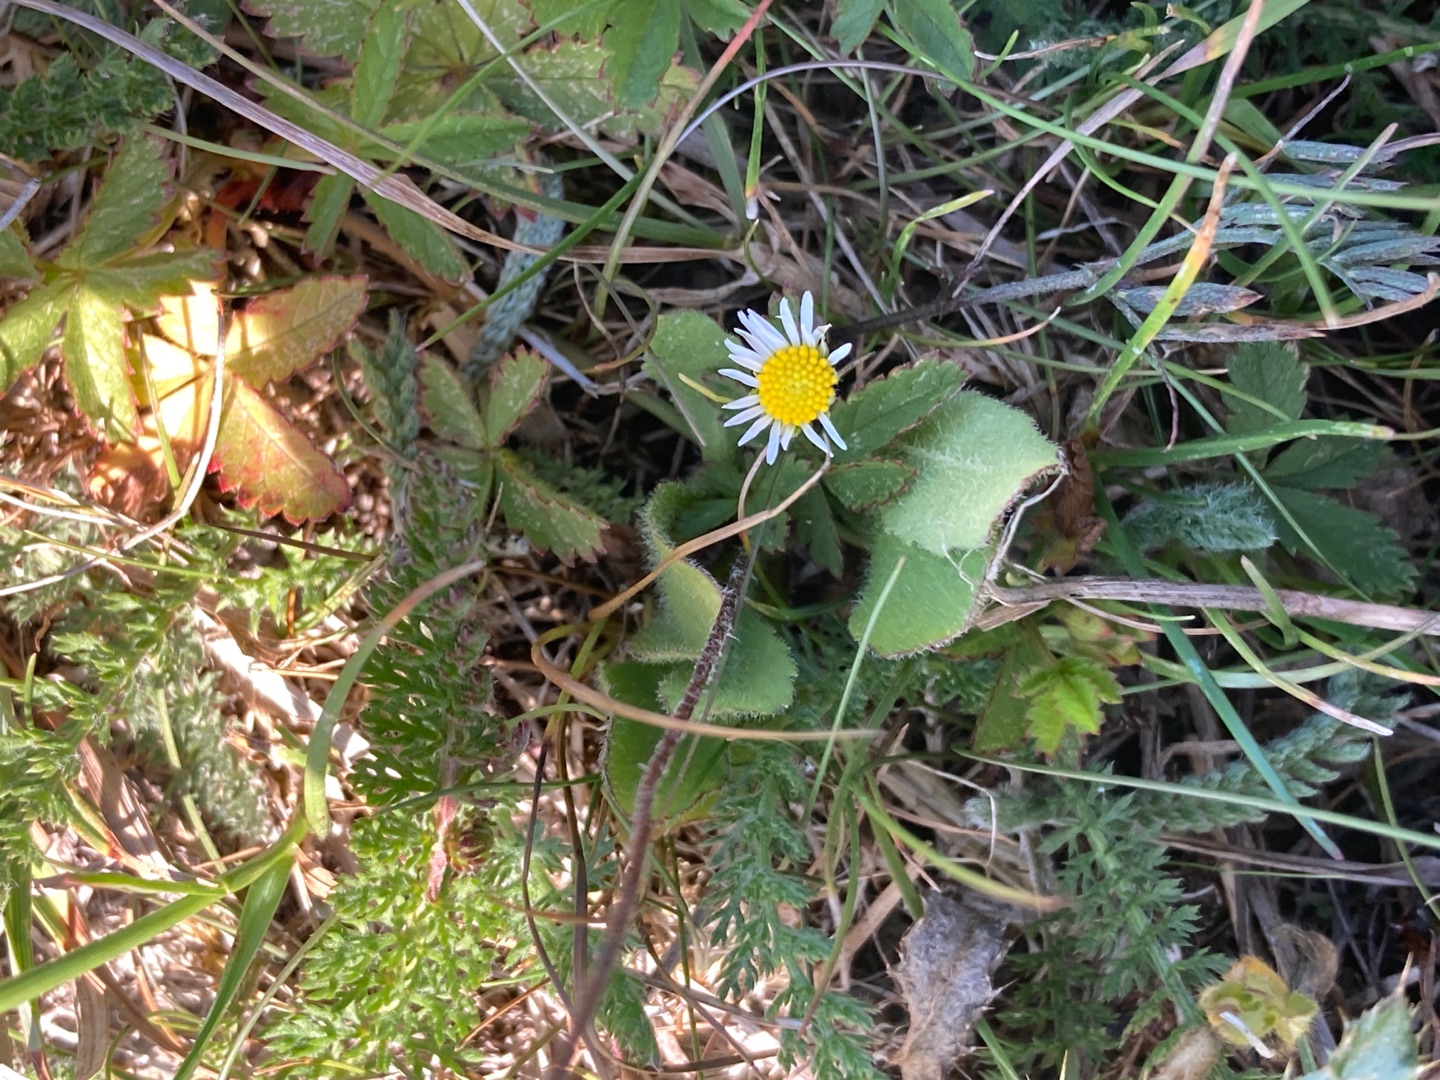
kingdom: Plantae
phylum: Tracheophyta
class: Magnoliopsida
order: Asterales
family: Asteraceae
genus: Bellis
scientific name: Bellis perennis
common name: Tusindfryd
